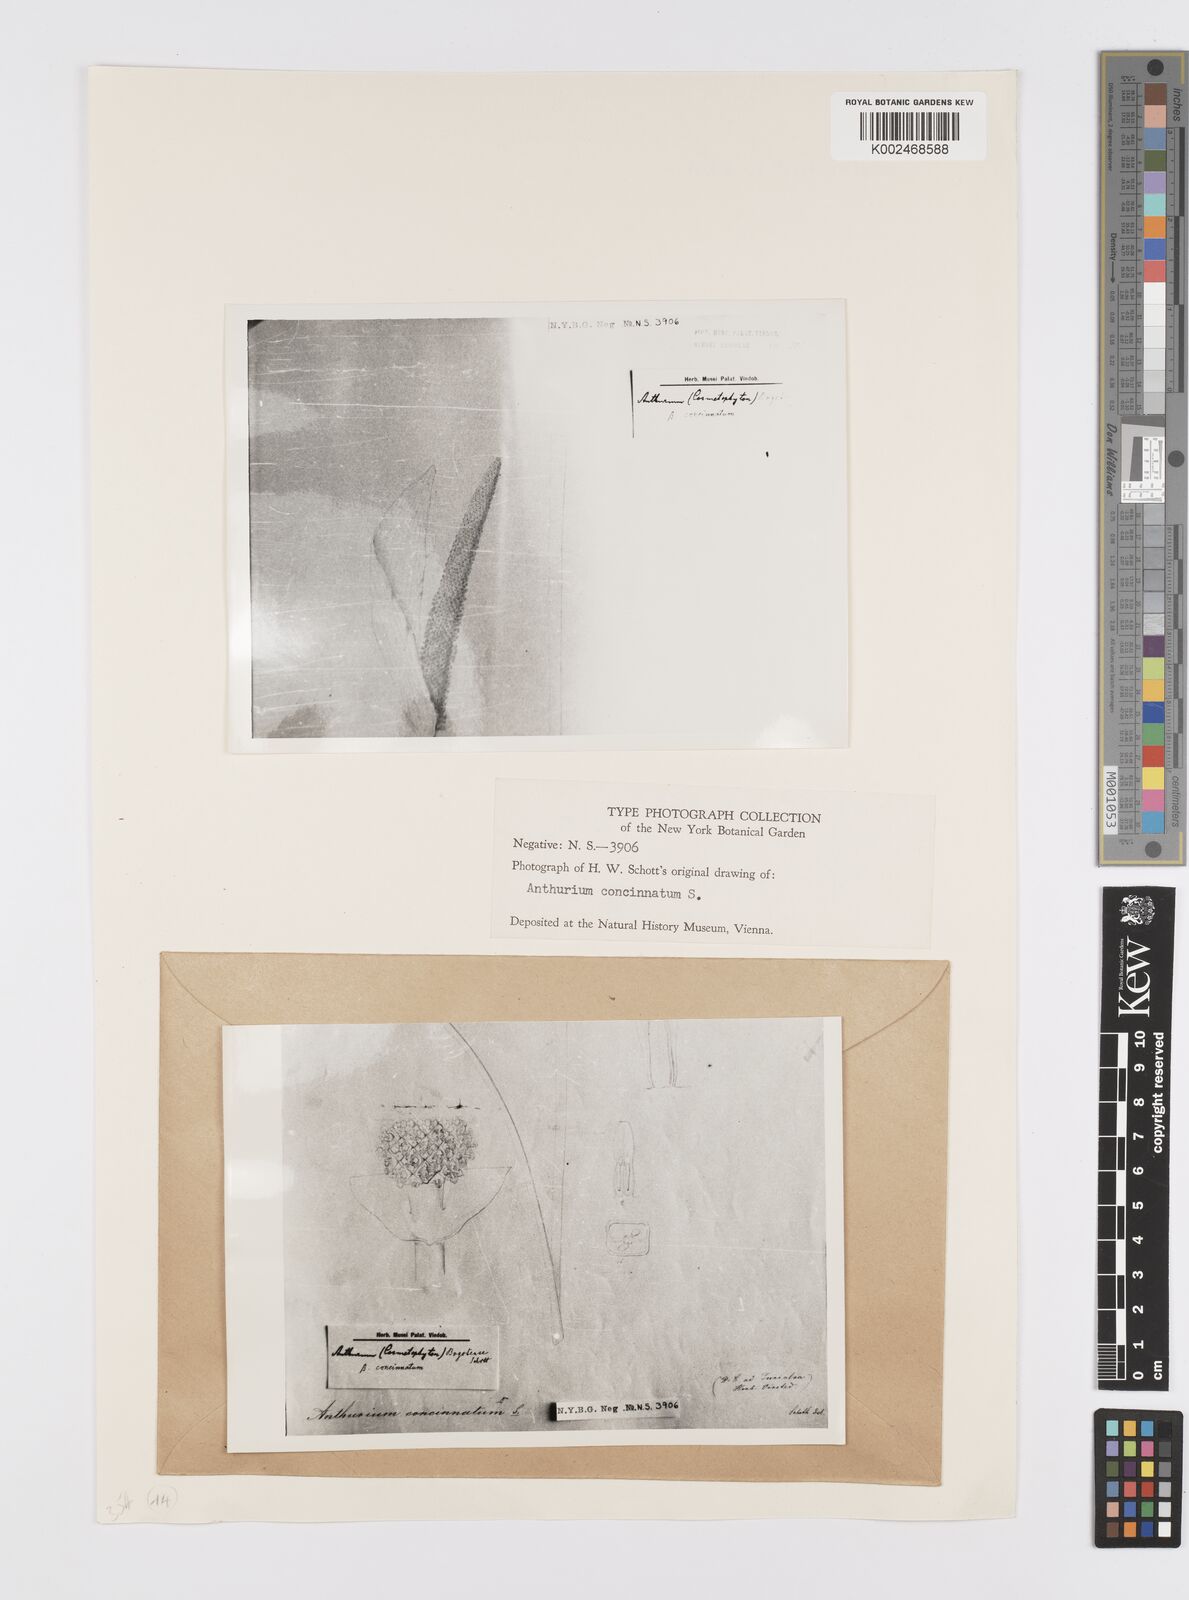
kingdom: Plantae
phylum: Tracheophyta
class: Liliopsida
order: Alismatales
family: Araceae
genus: Anthurium
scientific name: Anthurium concinnatum
